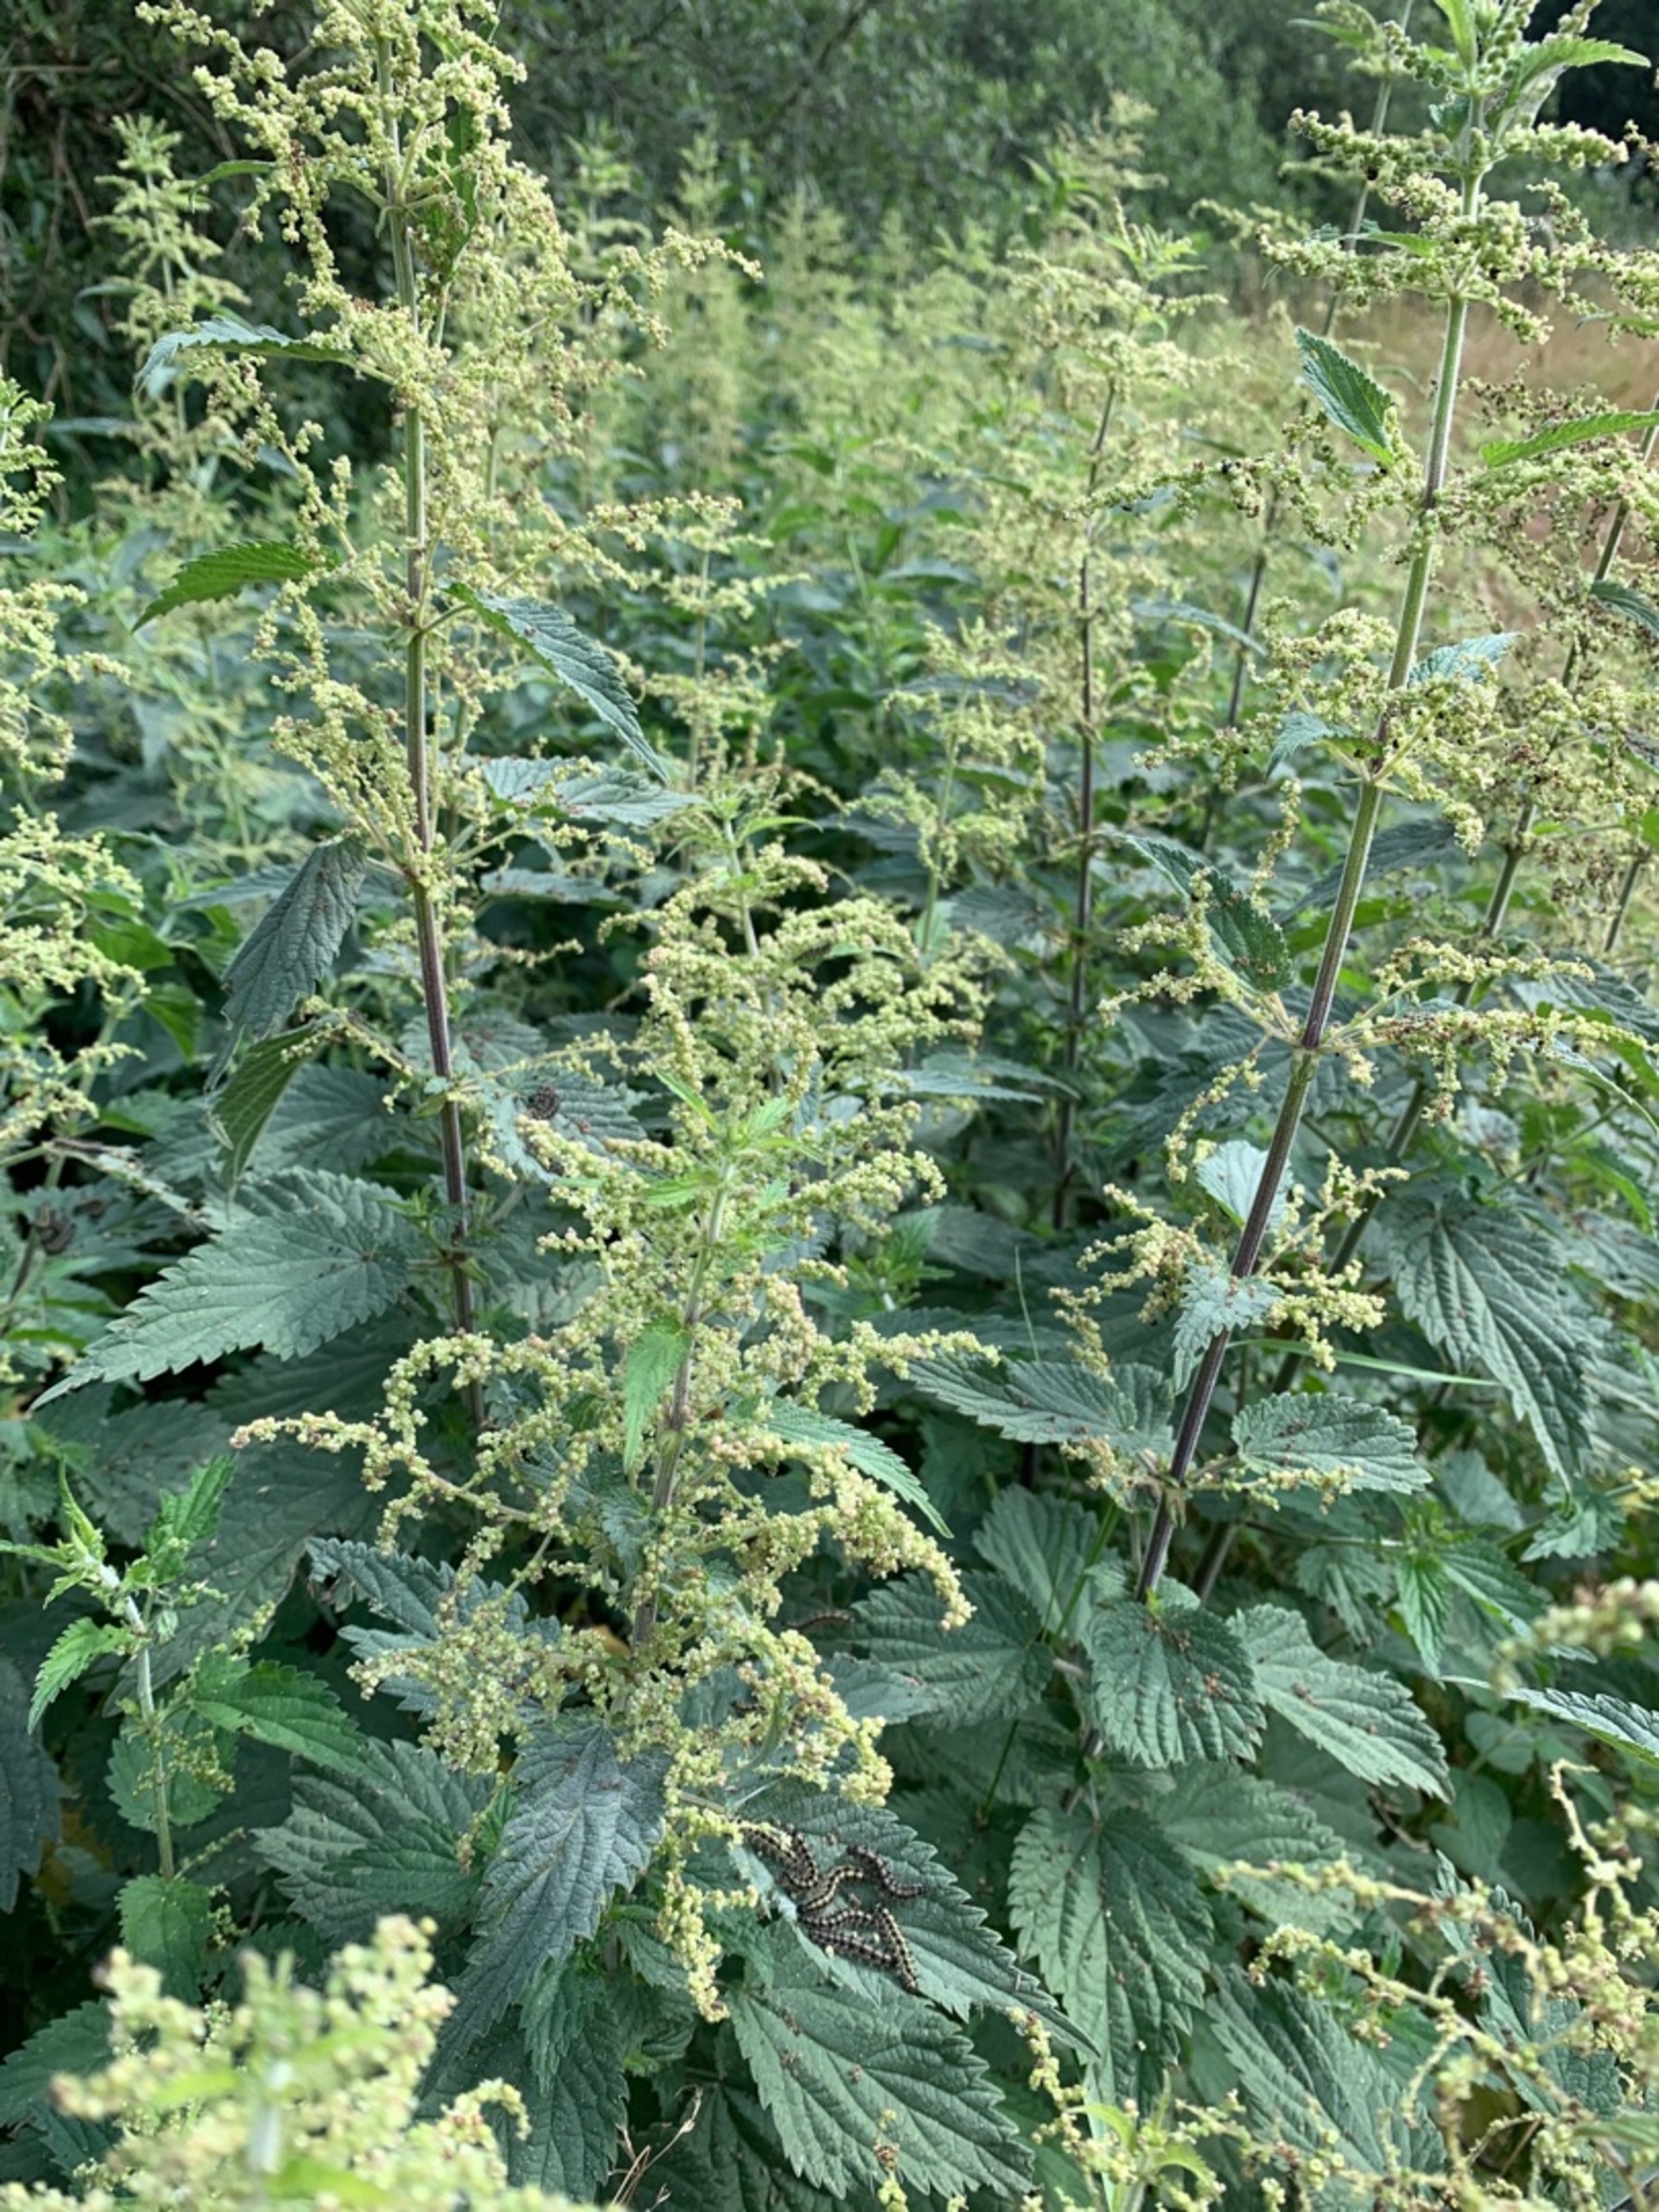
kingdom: Plantae
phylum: Tracheophyta
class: Magnoliopsida
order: Rosales
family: Urticaceae
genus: Urtica
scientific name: Urtica dioica
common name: Stor nælde
